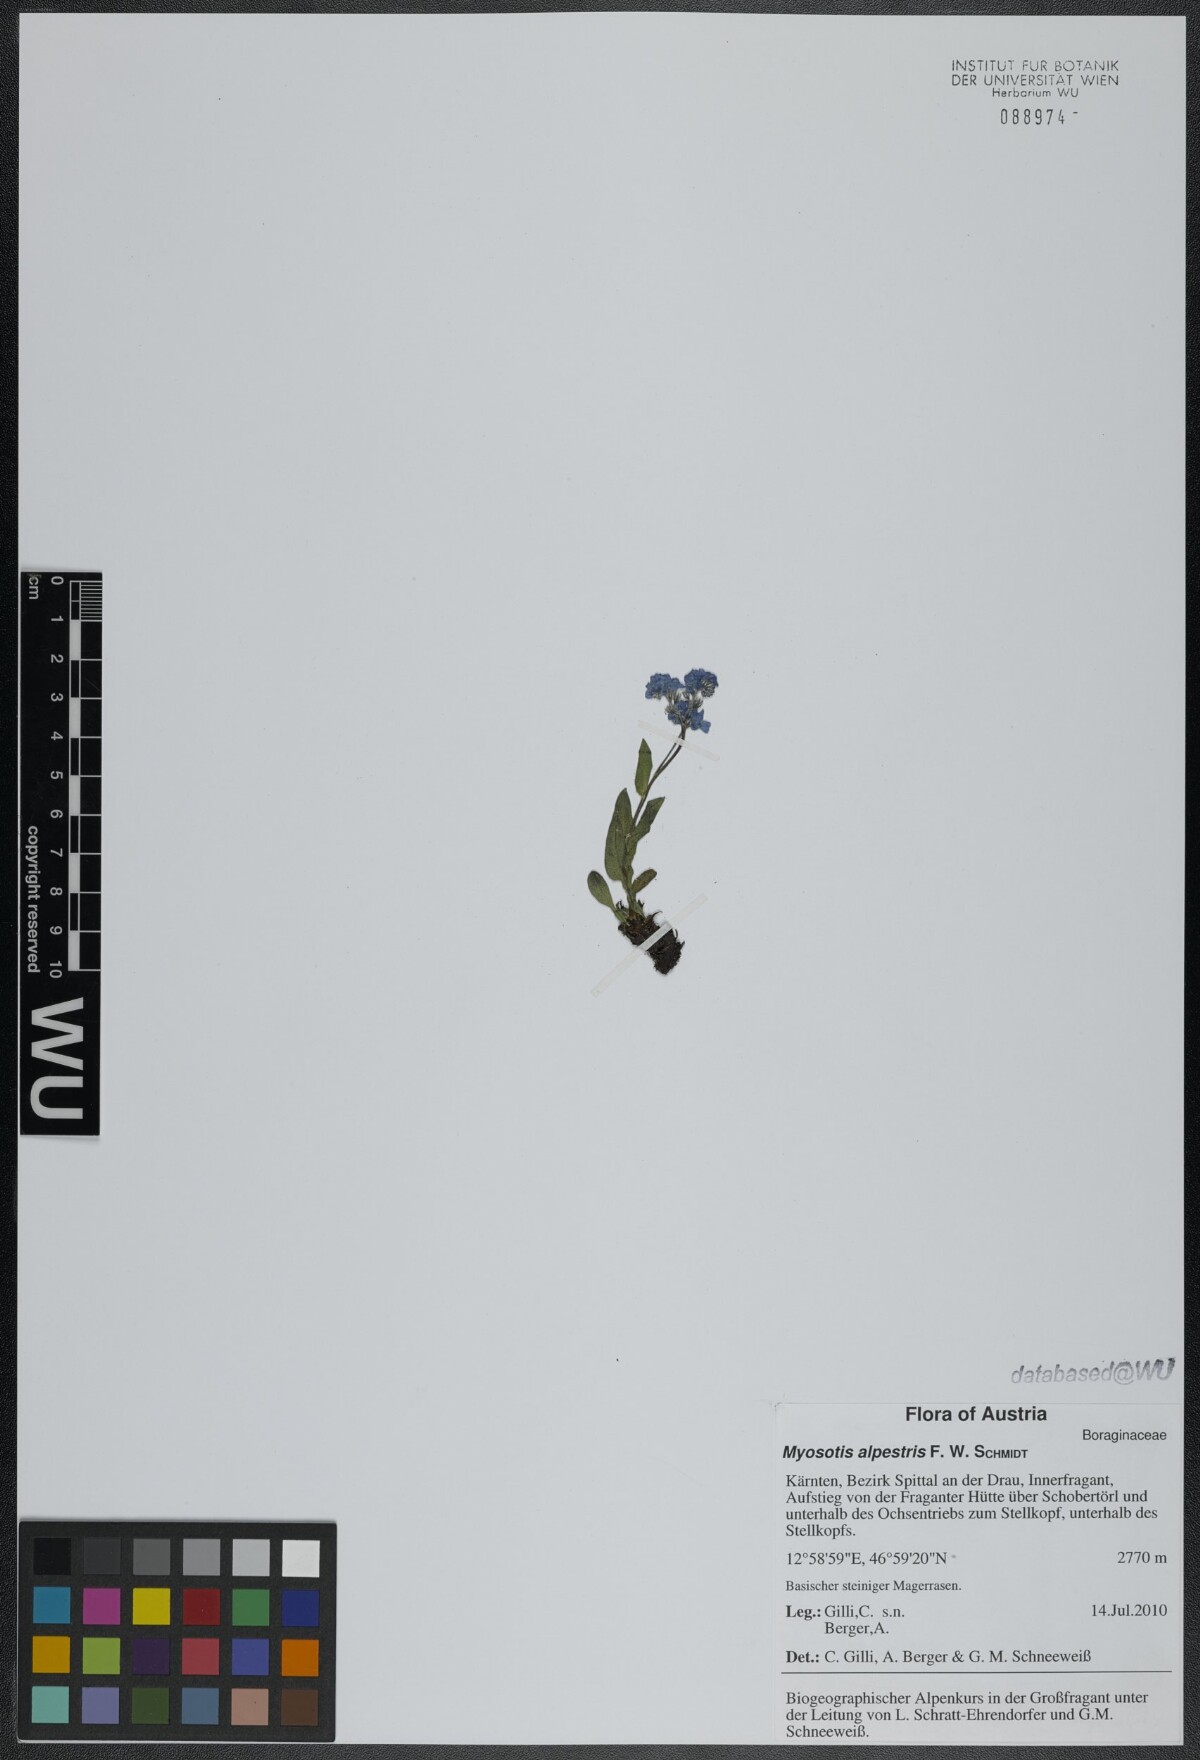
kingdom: Plantae
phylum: Tracheophyta
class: Magnoliopsida
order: Boraginales
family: Boraginaceae
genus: Myosotis
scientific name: Myosotis alpestris
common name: Alpine forget-me-not
